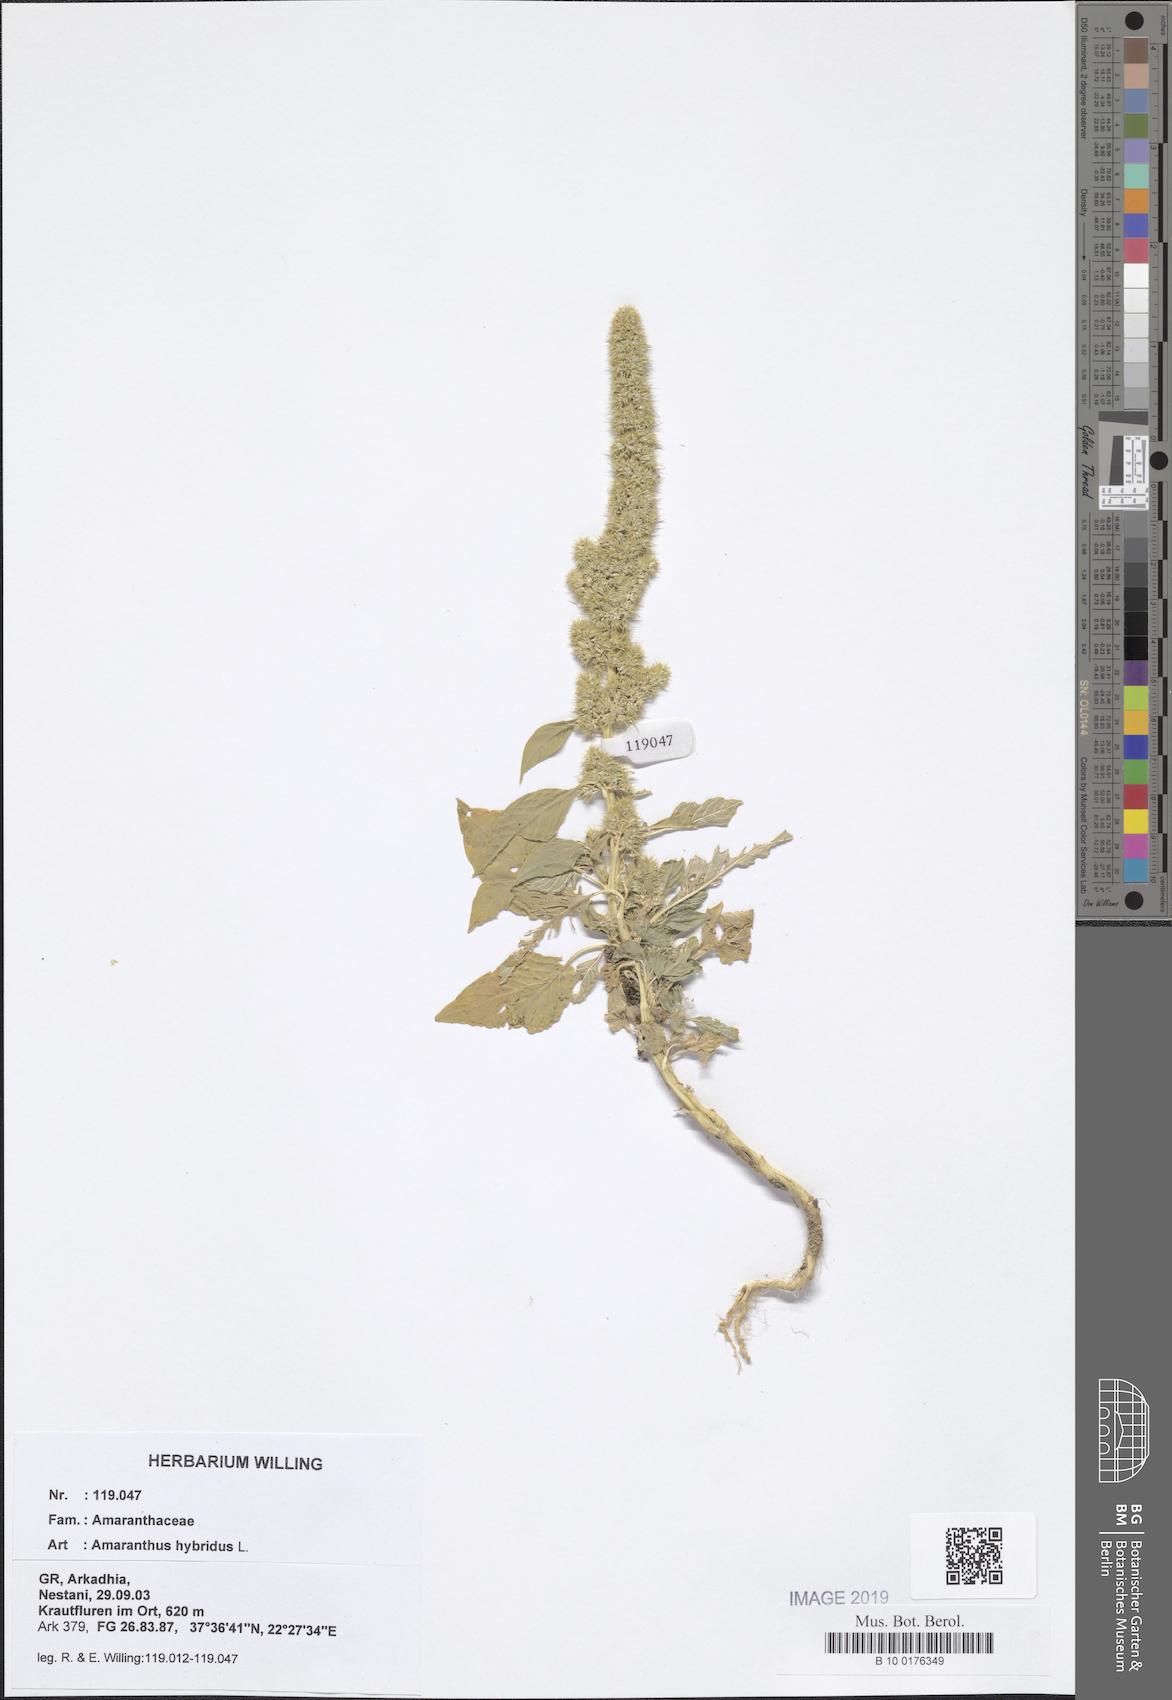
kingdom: Plantae
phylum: Tracheophyta
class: Magnoliopsida
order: Caryophyllales
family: Amaranthaceae
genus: Amaranthus
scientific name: Amaranthus hybridus
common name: Green amaranth
